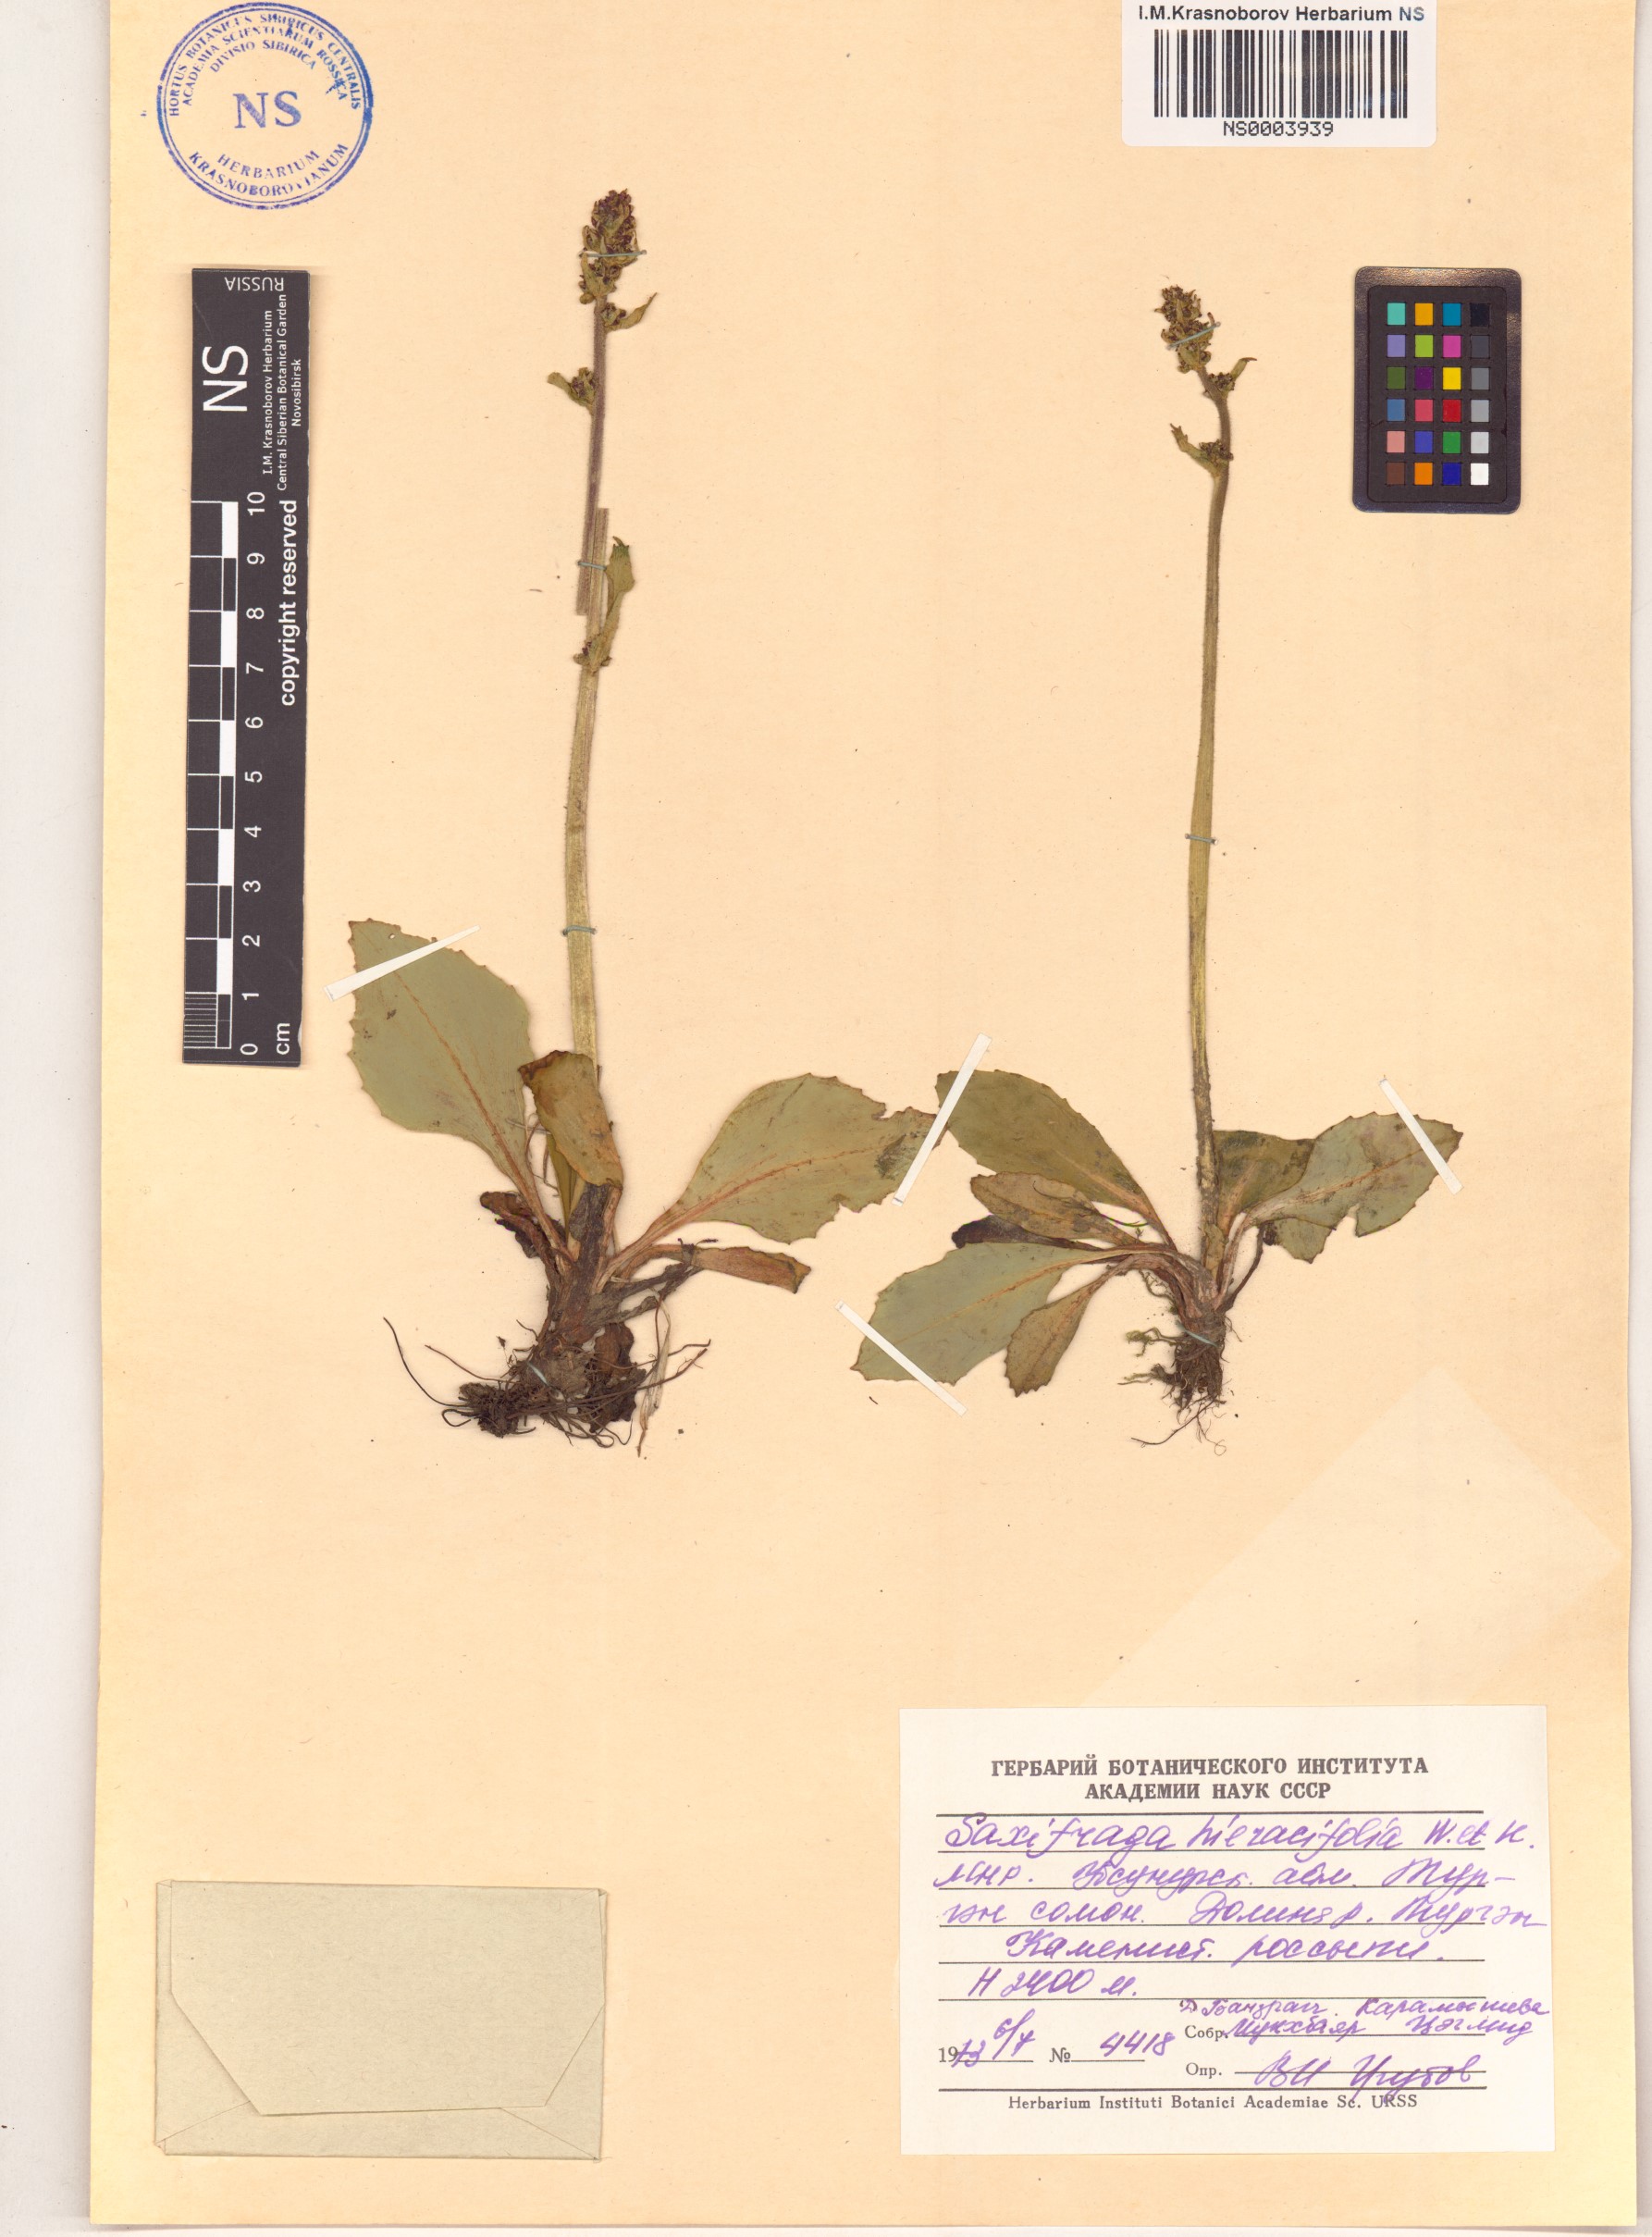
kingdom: Plantae
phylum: Tracheophyta
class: Magnoliopsida
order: Saxifragales
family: Saxifragaceae
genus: Micranthes
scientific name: Micranthes hieraciifolia
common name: Hawkweed-leaved saxifrage
